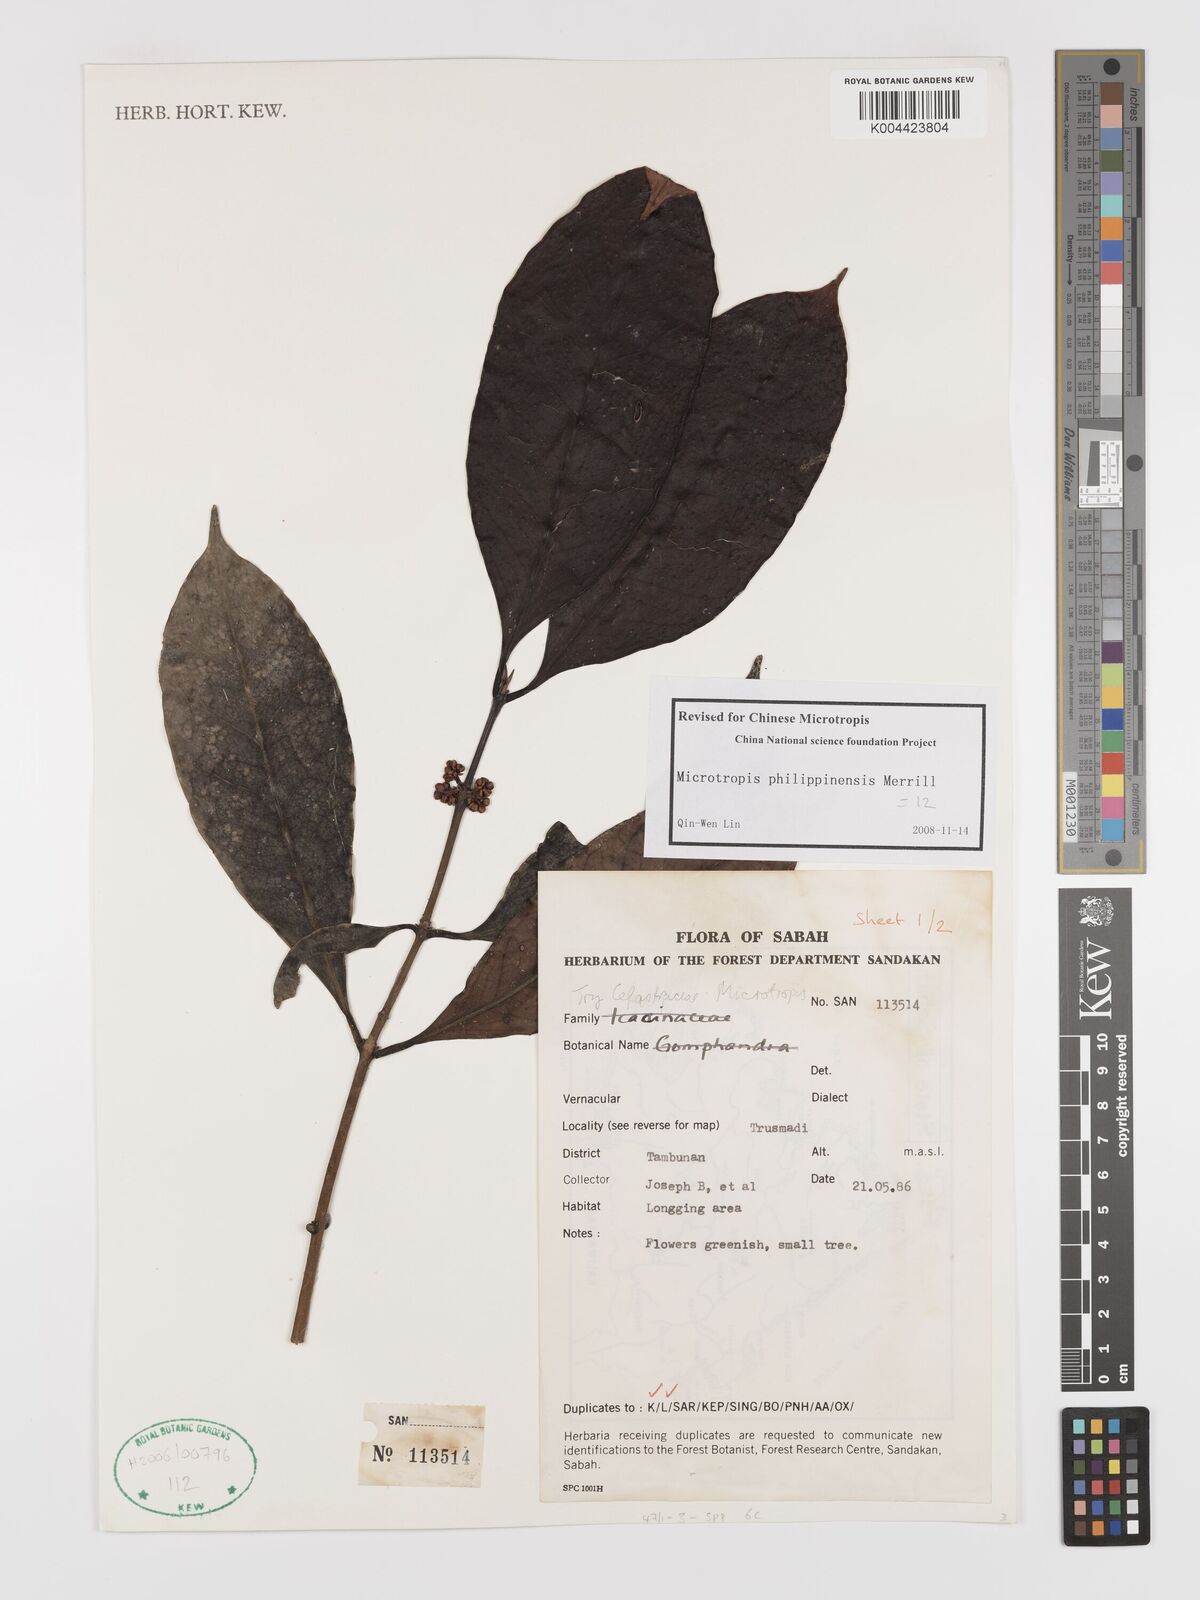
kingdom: Plantae
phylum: Tracheophyta
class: Magnoliopsida
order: Celastrales
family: Celastraceae
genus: Microtropis
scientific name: Microtropis platyphylla
